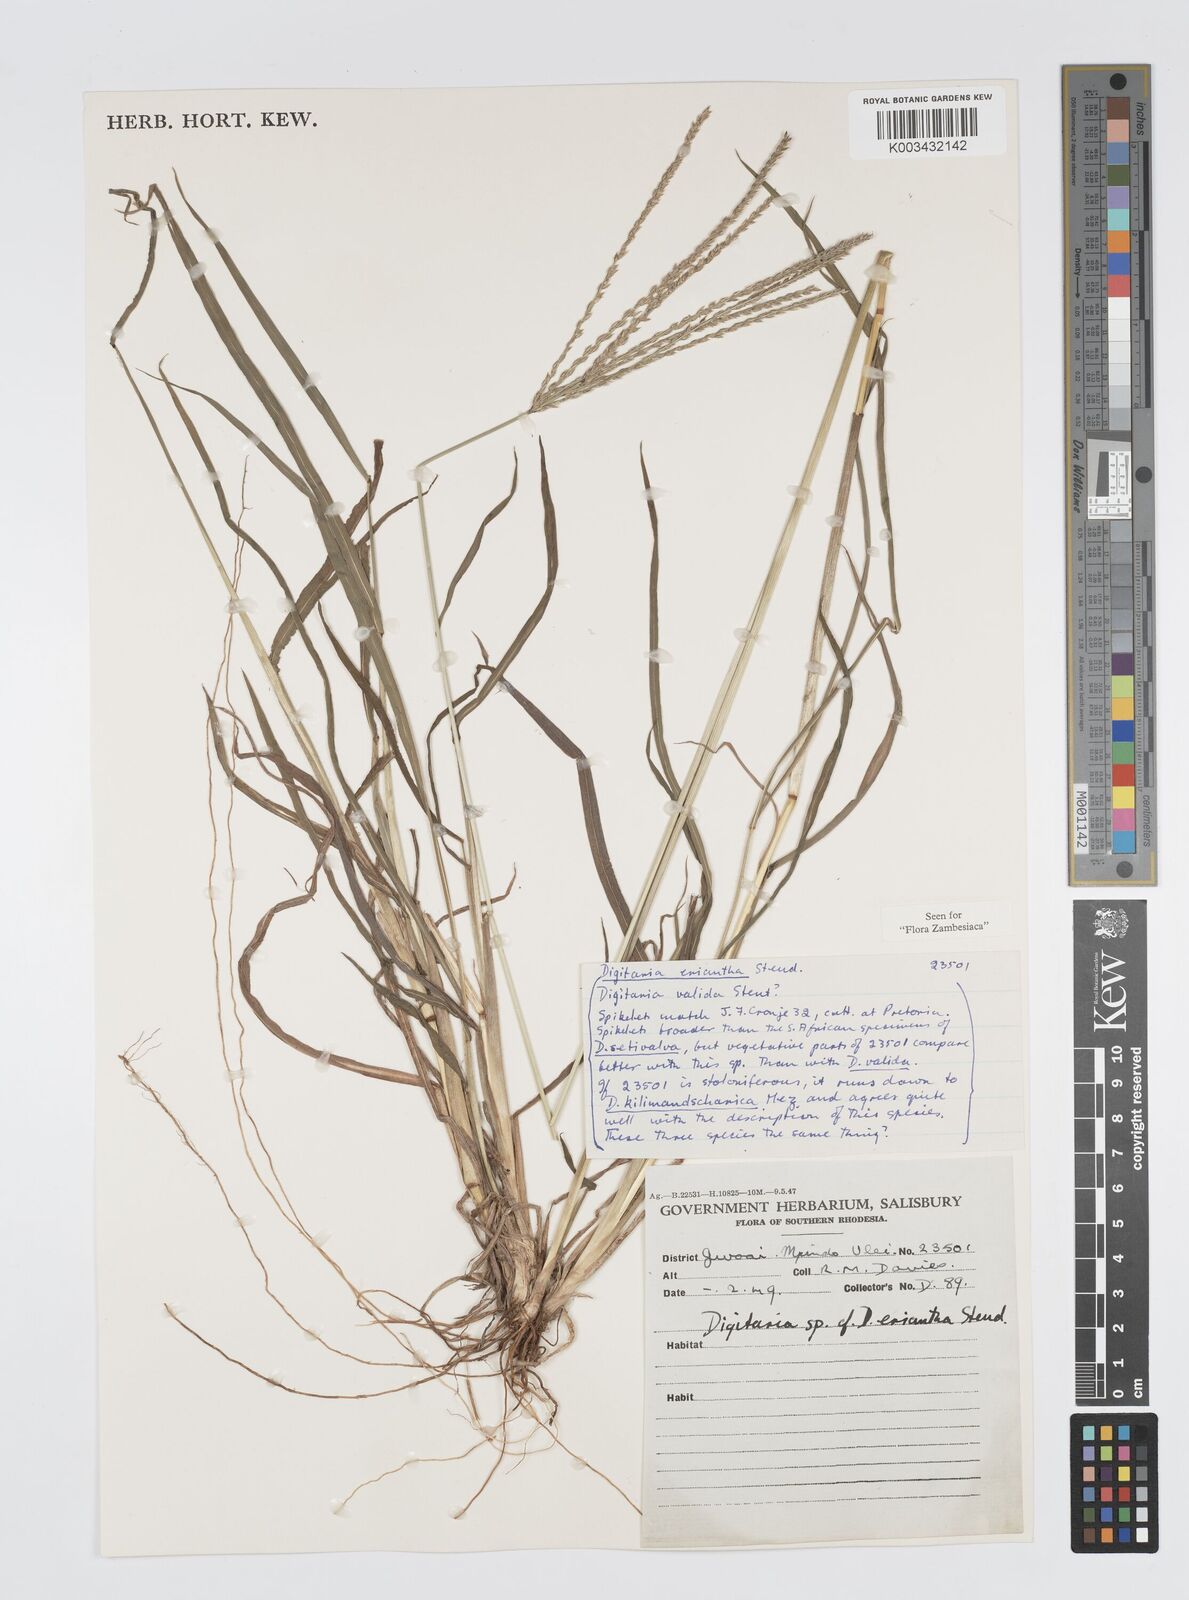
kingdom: Plantae
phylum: Tracheophyta
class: Liliopsida
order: Poales
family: Poaceae
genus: Digitaria
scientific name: Digitaria milanjiana
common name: Madagascar crabgrass
